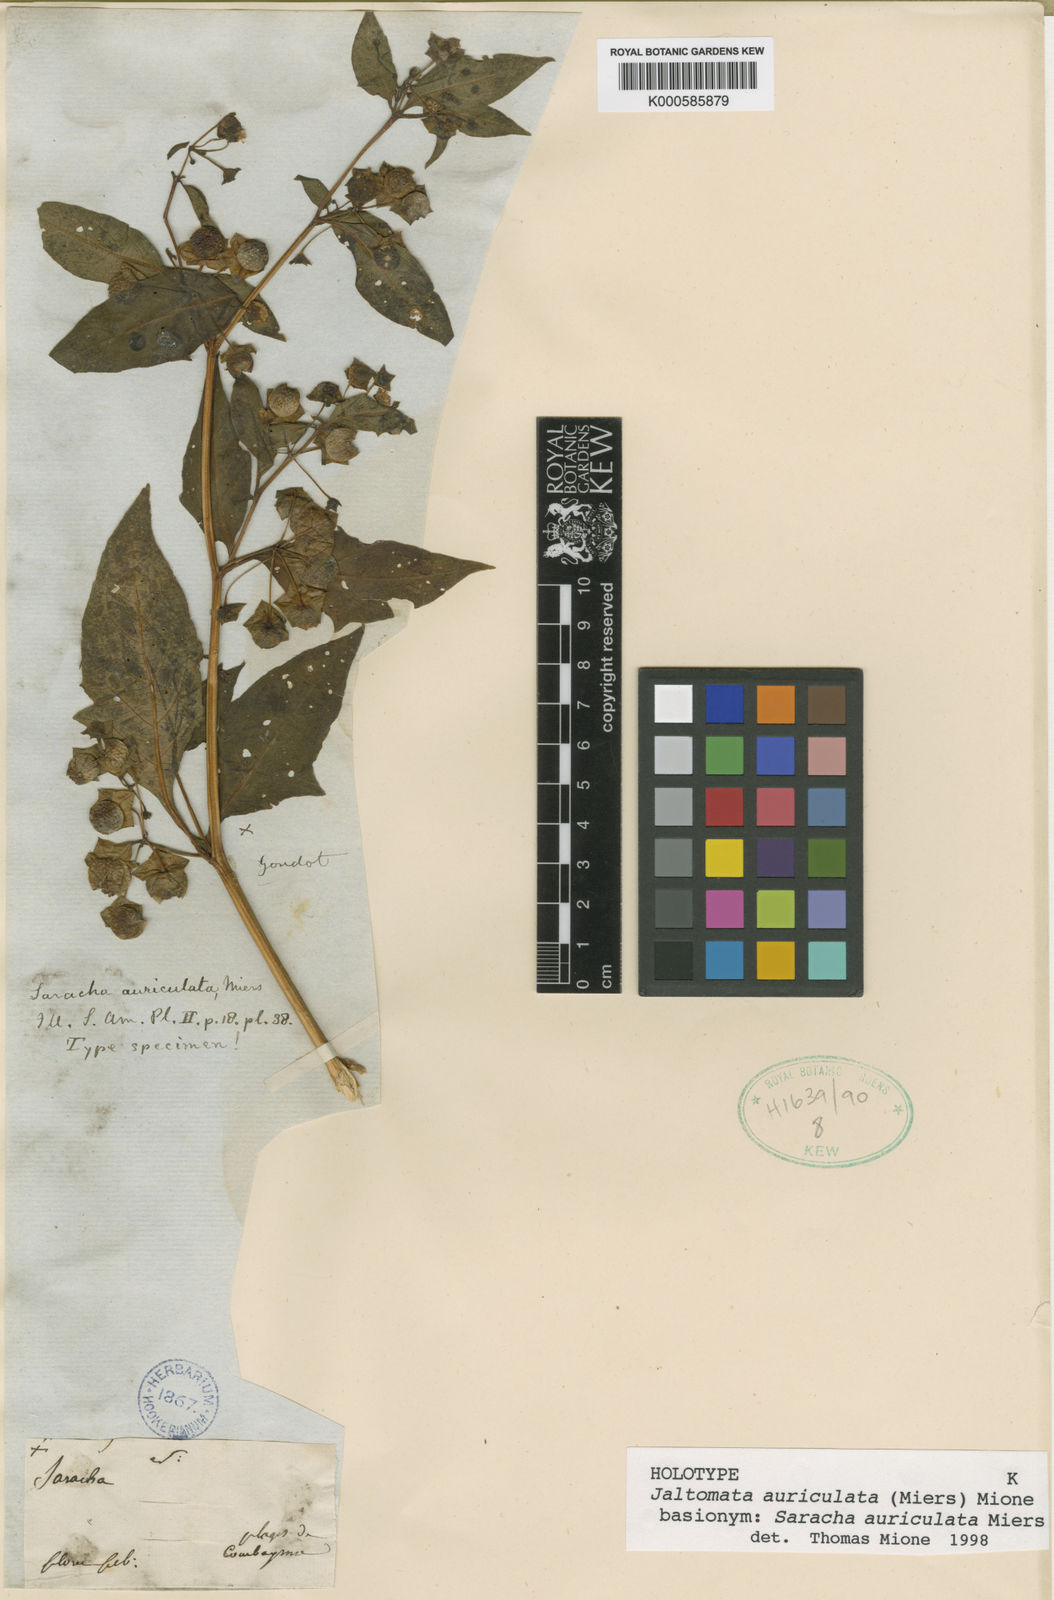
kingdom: Plantae
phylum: Tracheophyta
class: Magnoliopsida
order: Solanales
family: Solanaceae
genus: Jaltomata
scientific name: Jaltomata auriculata
